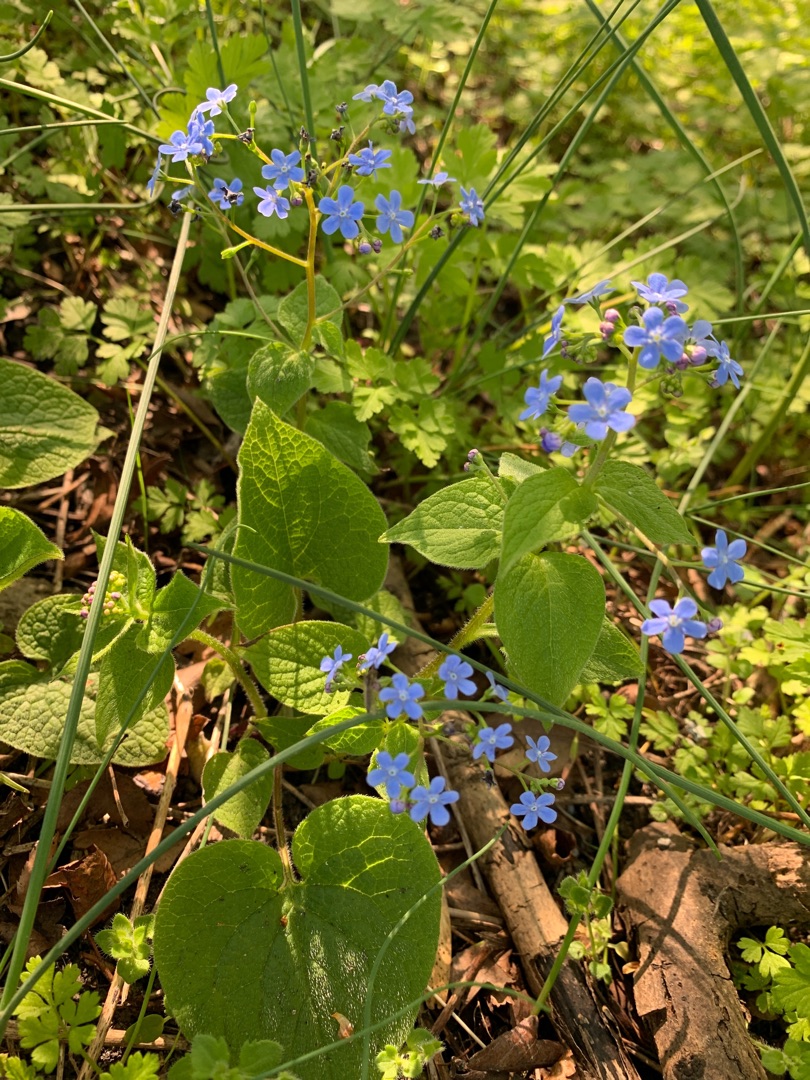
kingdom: Plantae
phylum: Tracheophyta
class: Magnoliopsida
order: Boraginales
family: Boraginaceae
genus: Brunnera
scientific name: Brunnera macrophylla
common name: Kærmindesøster
